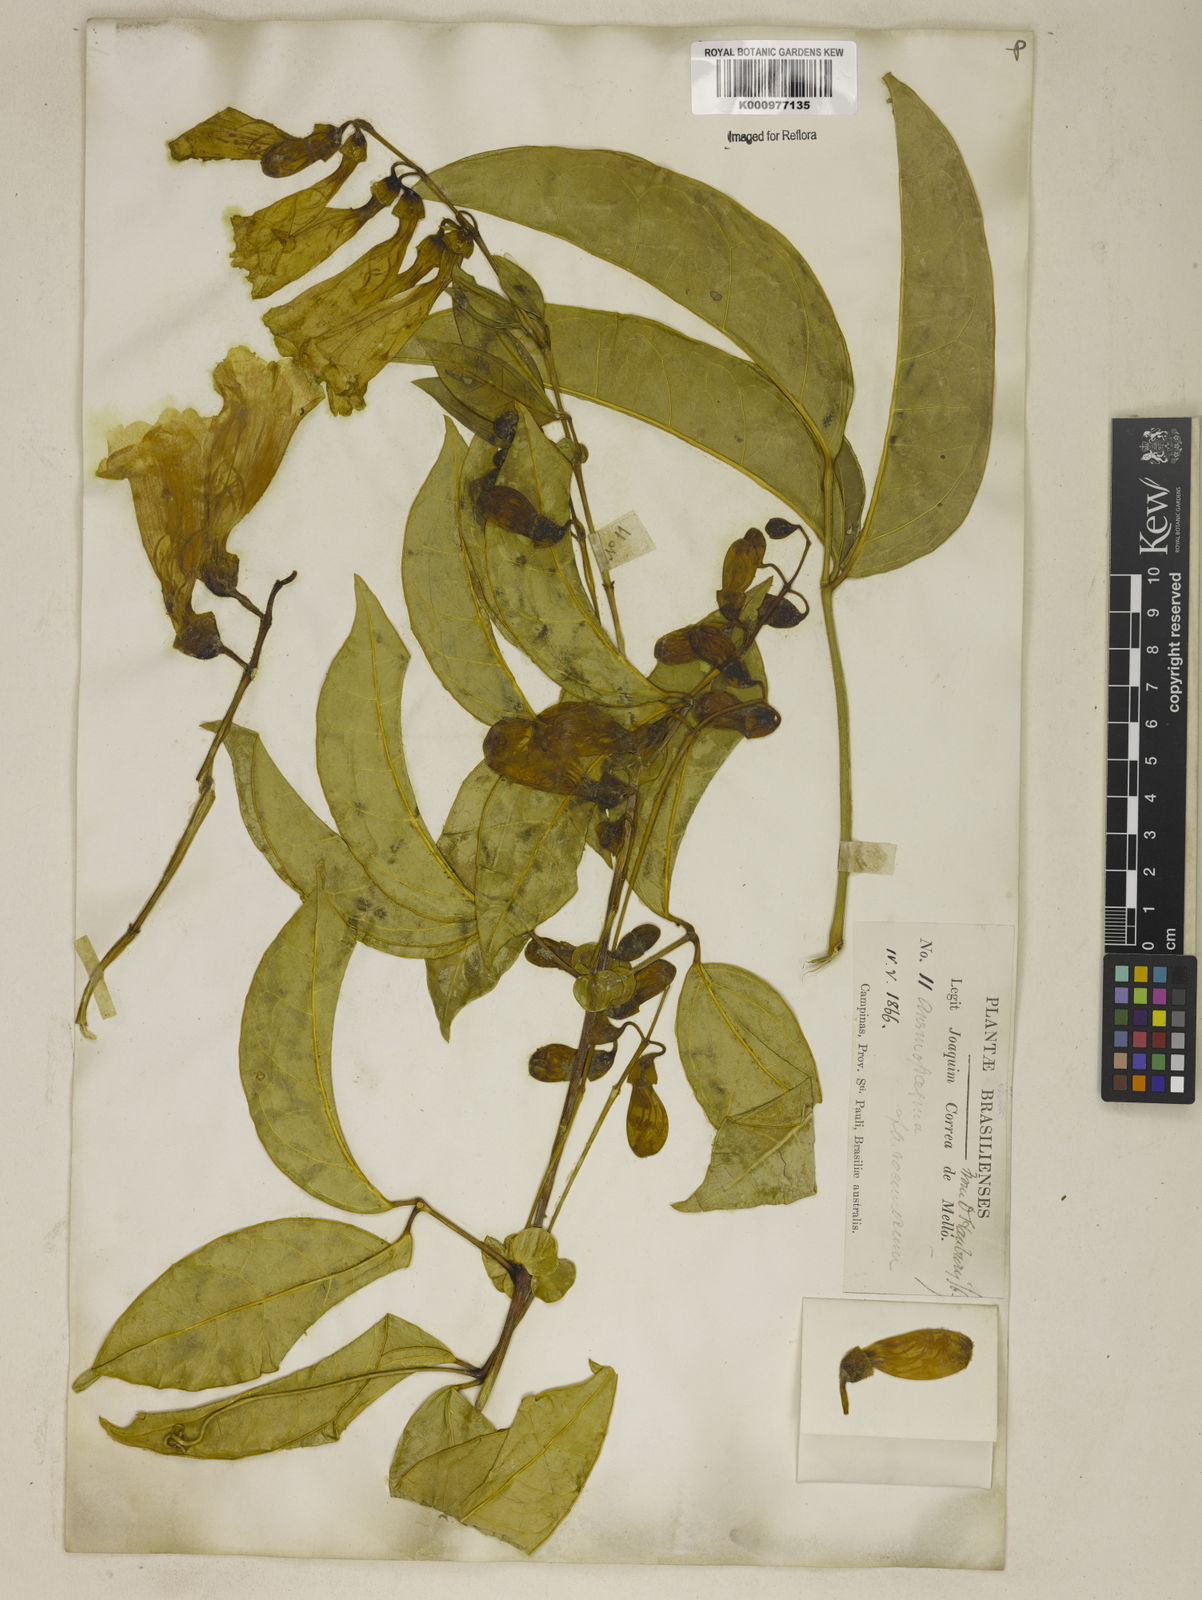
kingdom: Plantae
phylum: Tracheophyta
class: Magnoliopsida
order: Lamiales
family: Bignoniaceae
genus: Anemopaegma
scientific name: Anemopaegma chamberlaynii
